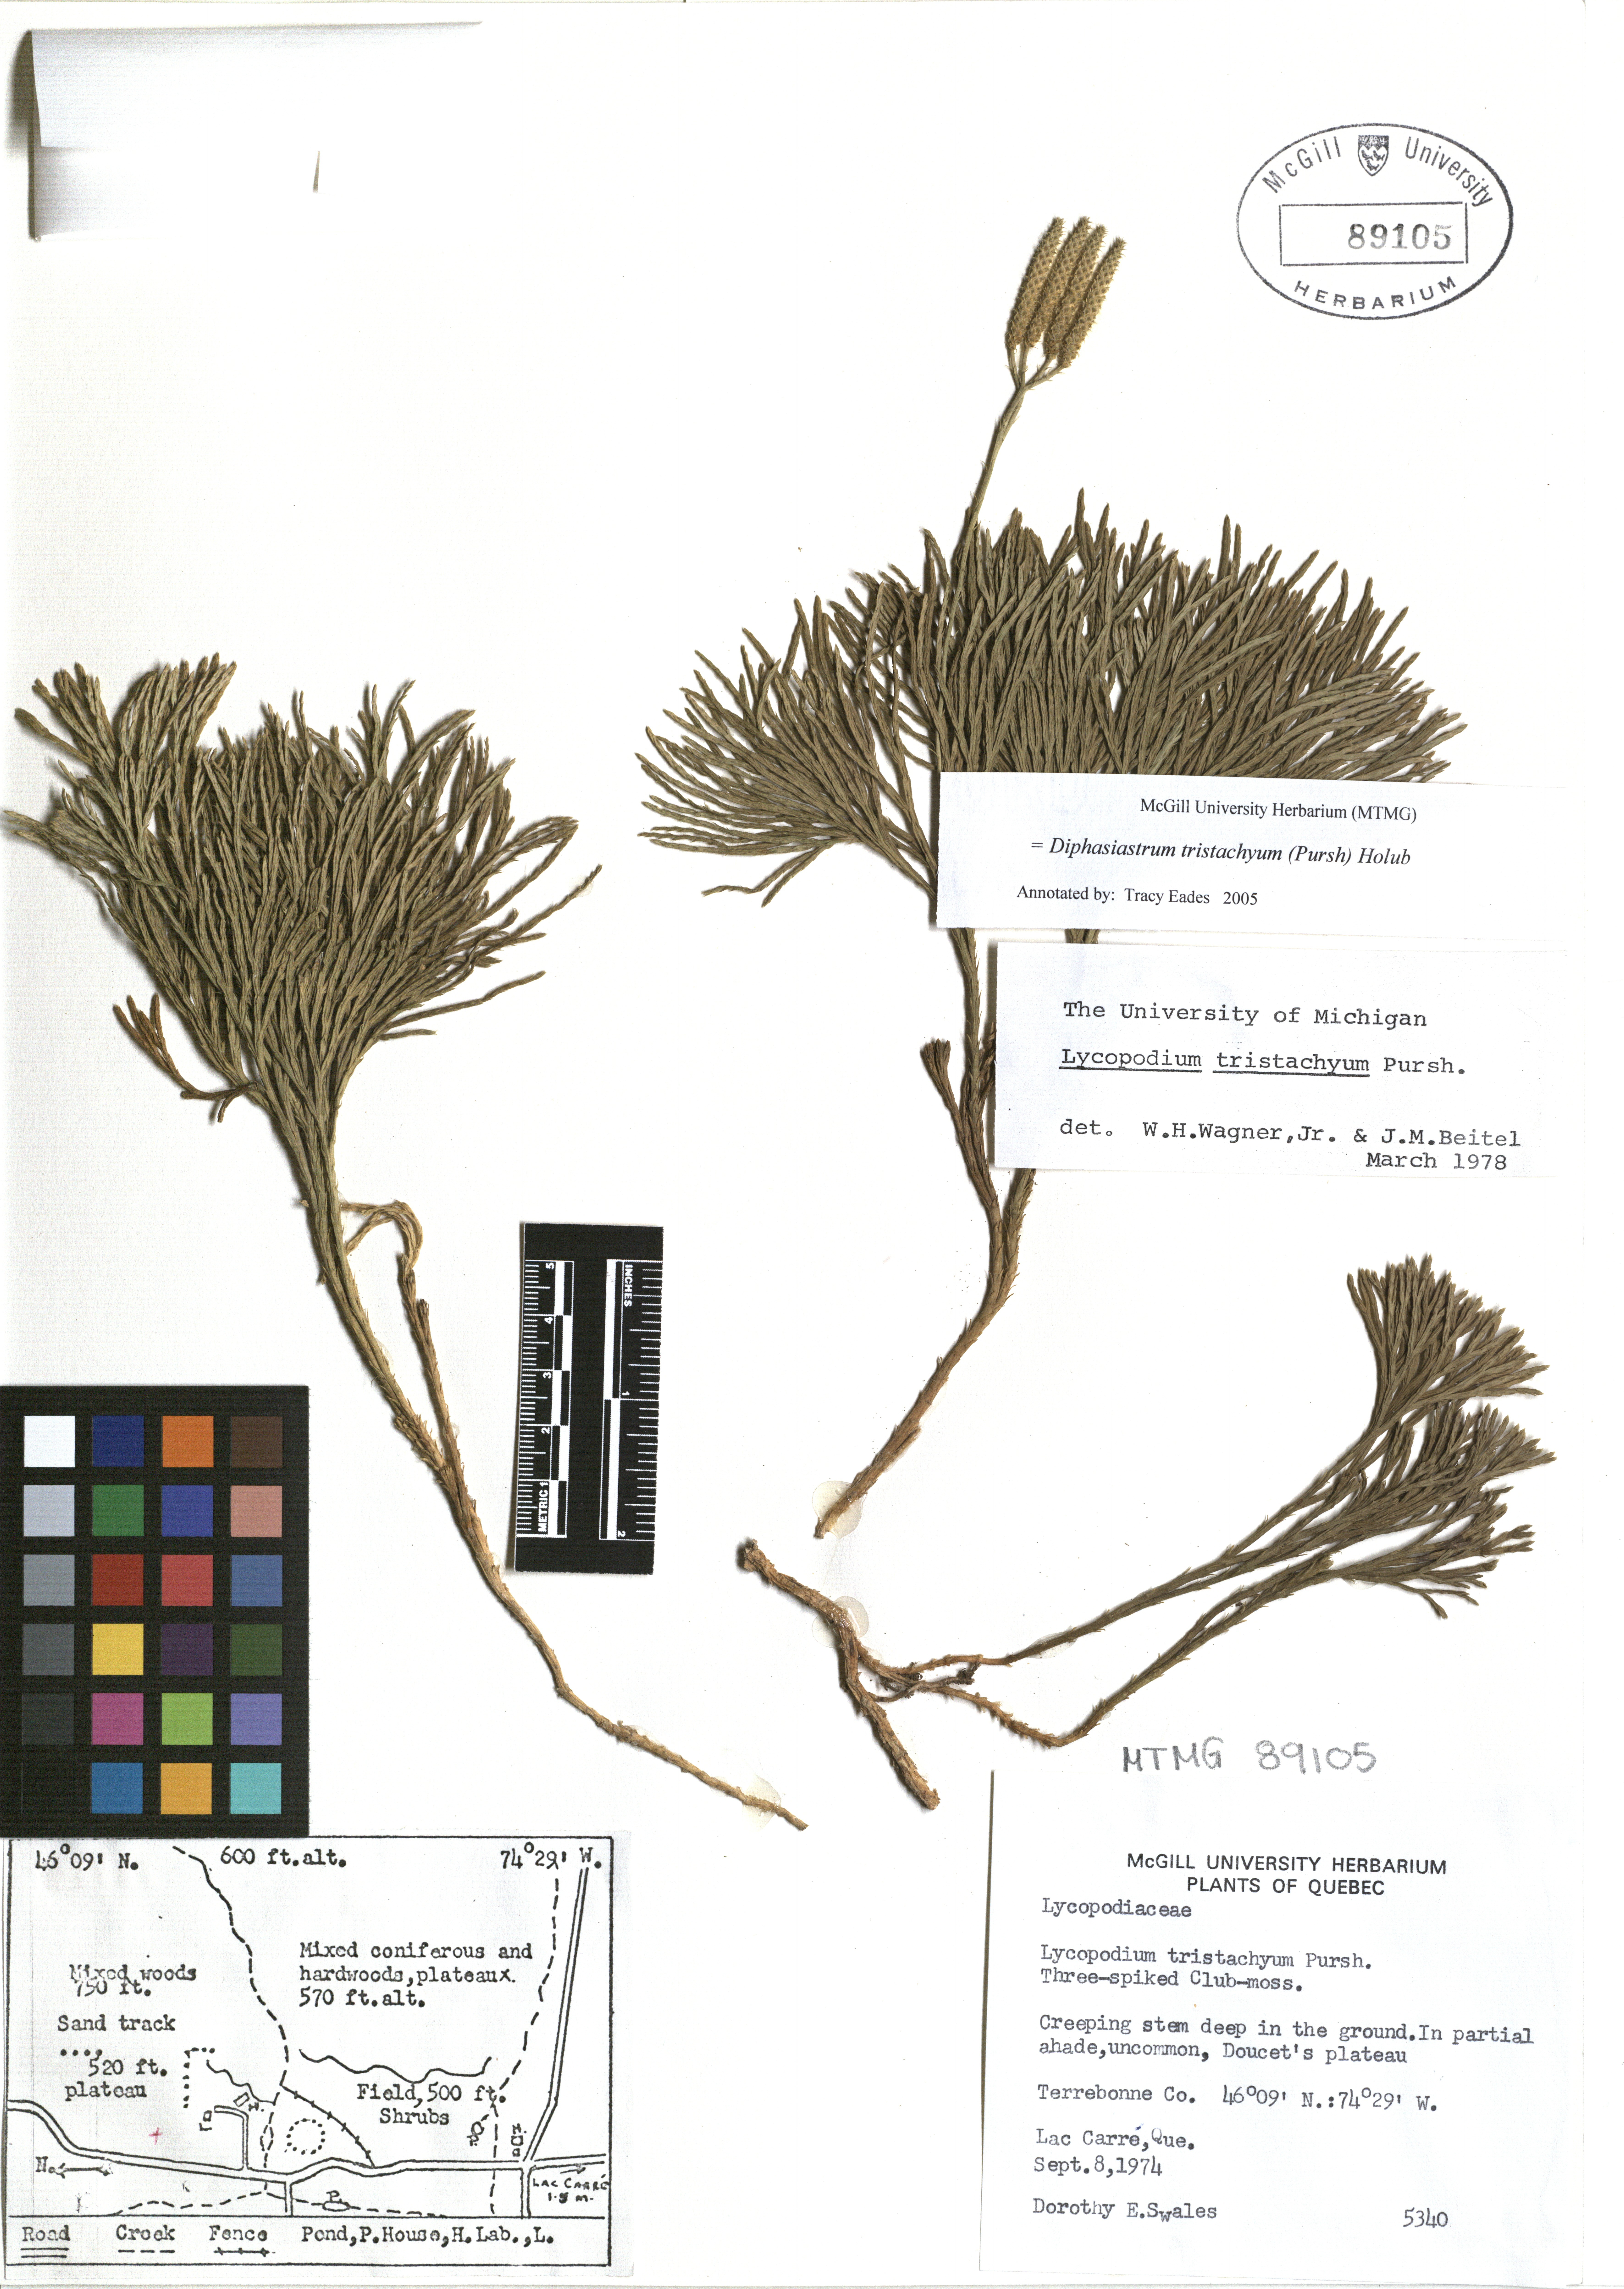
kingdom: Plantae
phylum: Tracheophyta
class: Lycopodiopsida
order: Lycopodiales
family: Lycopodiaceae
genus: Diphasiastrum
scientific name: Diphasiastrum tristachyum
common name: Blue ground-cedar
